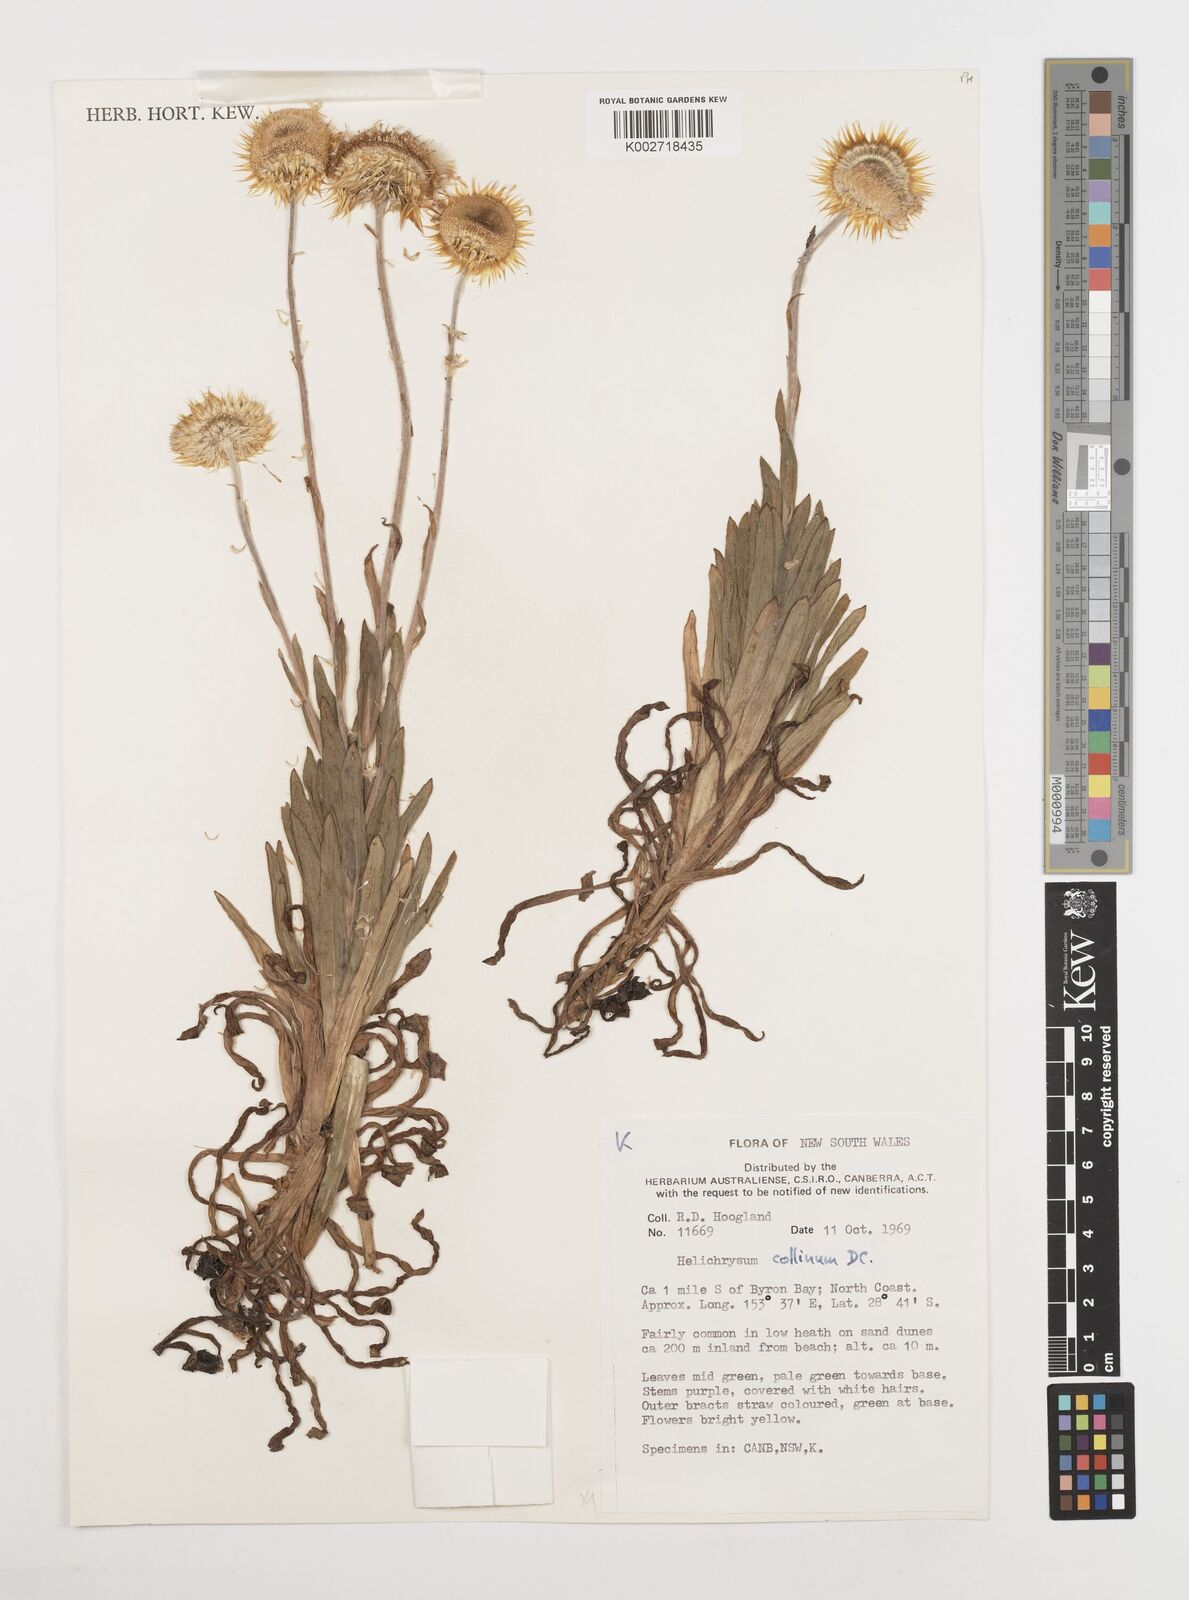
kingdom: Plantae
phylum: Tracheophyta
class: Magnoliopsida
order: Asterales
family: Asteraceae
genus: Coronidium
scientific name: Coronidium rupicola
